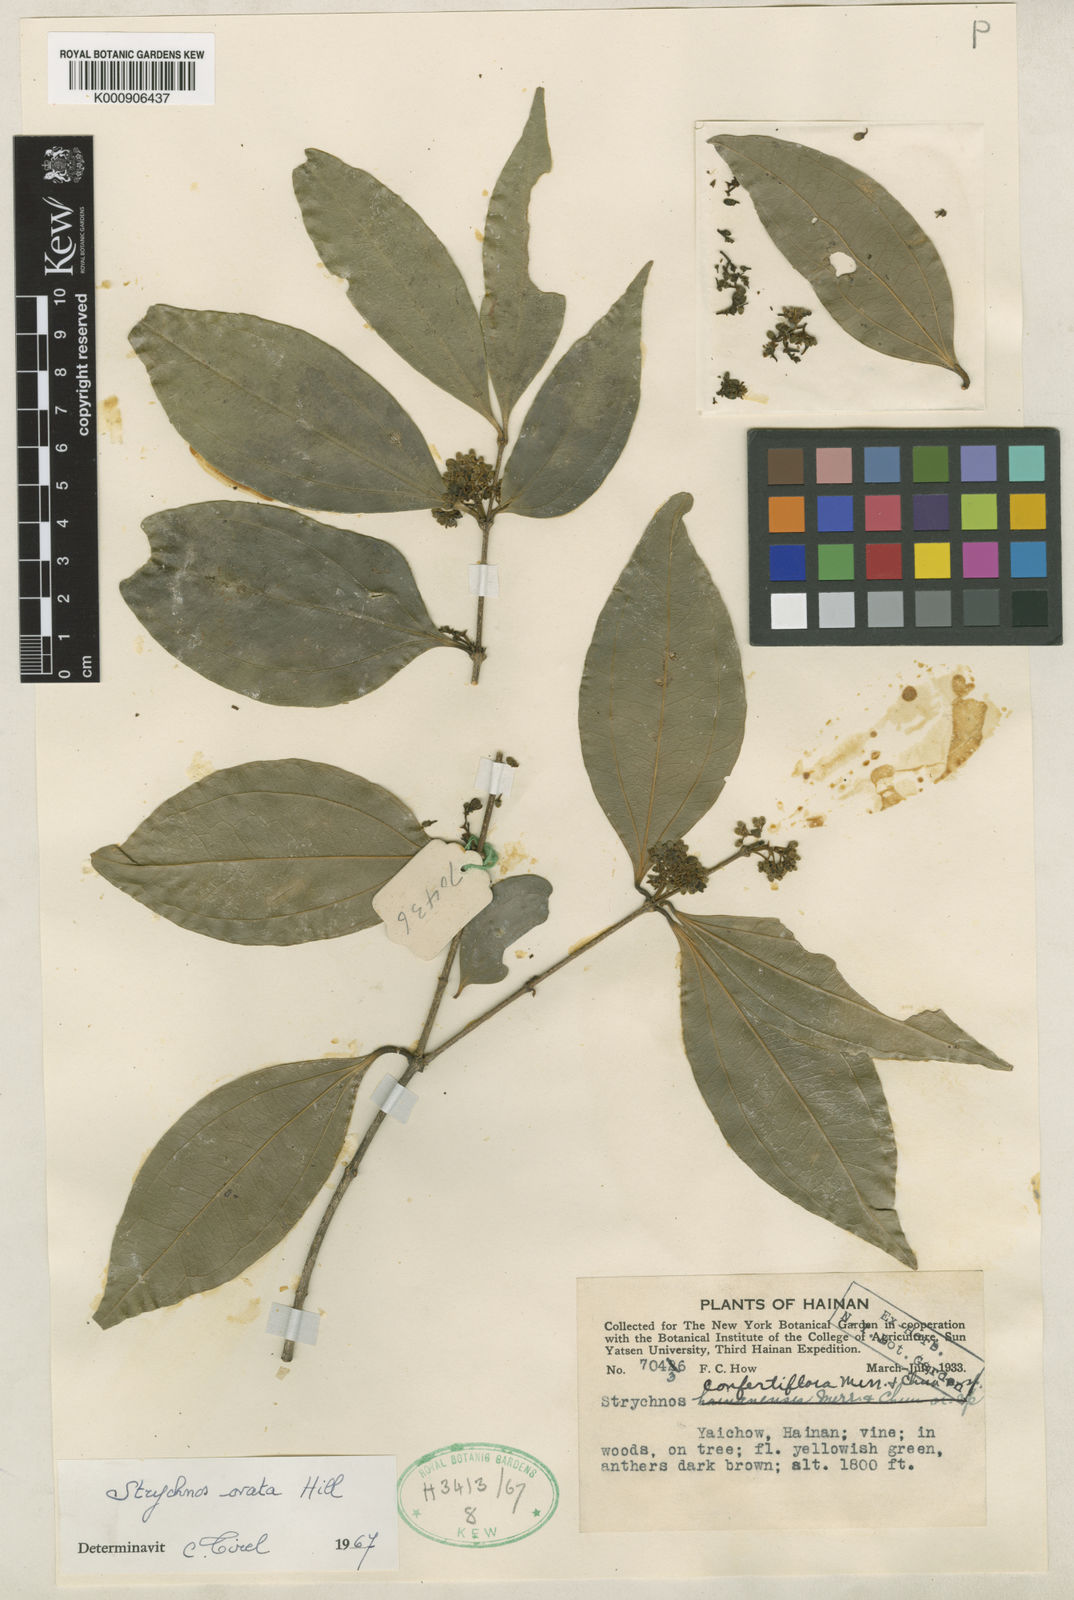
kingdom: Plantae
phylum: Tracheophyta
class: Magnoliopsida
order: Gentianales
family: Loganiaceae
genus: Strychnos
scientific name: Strychnos ovata
